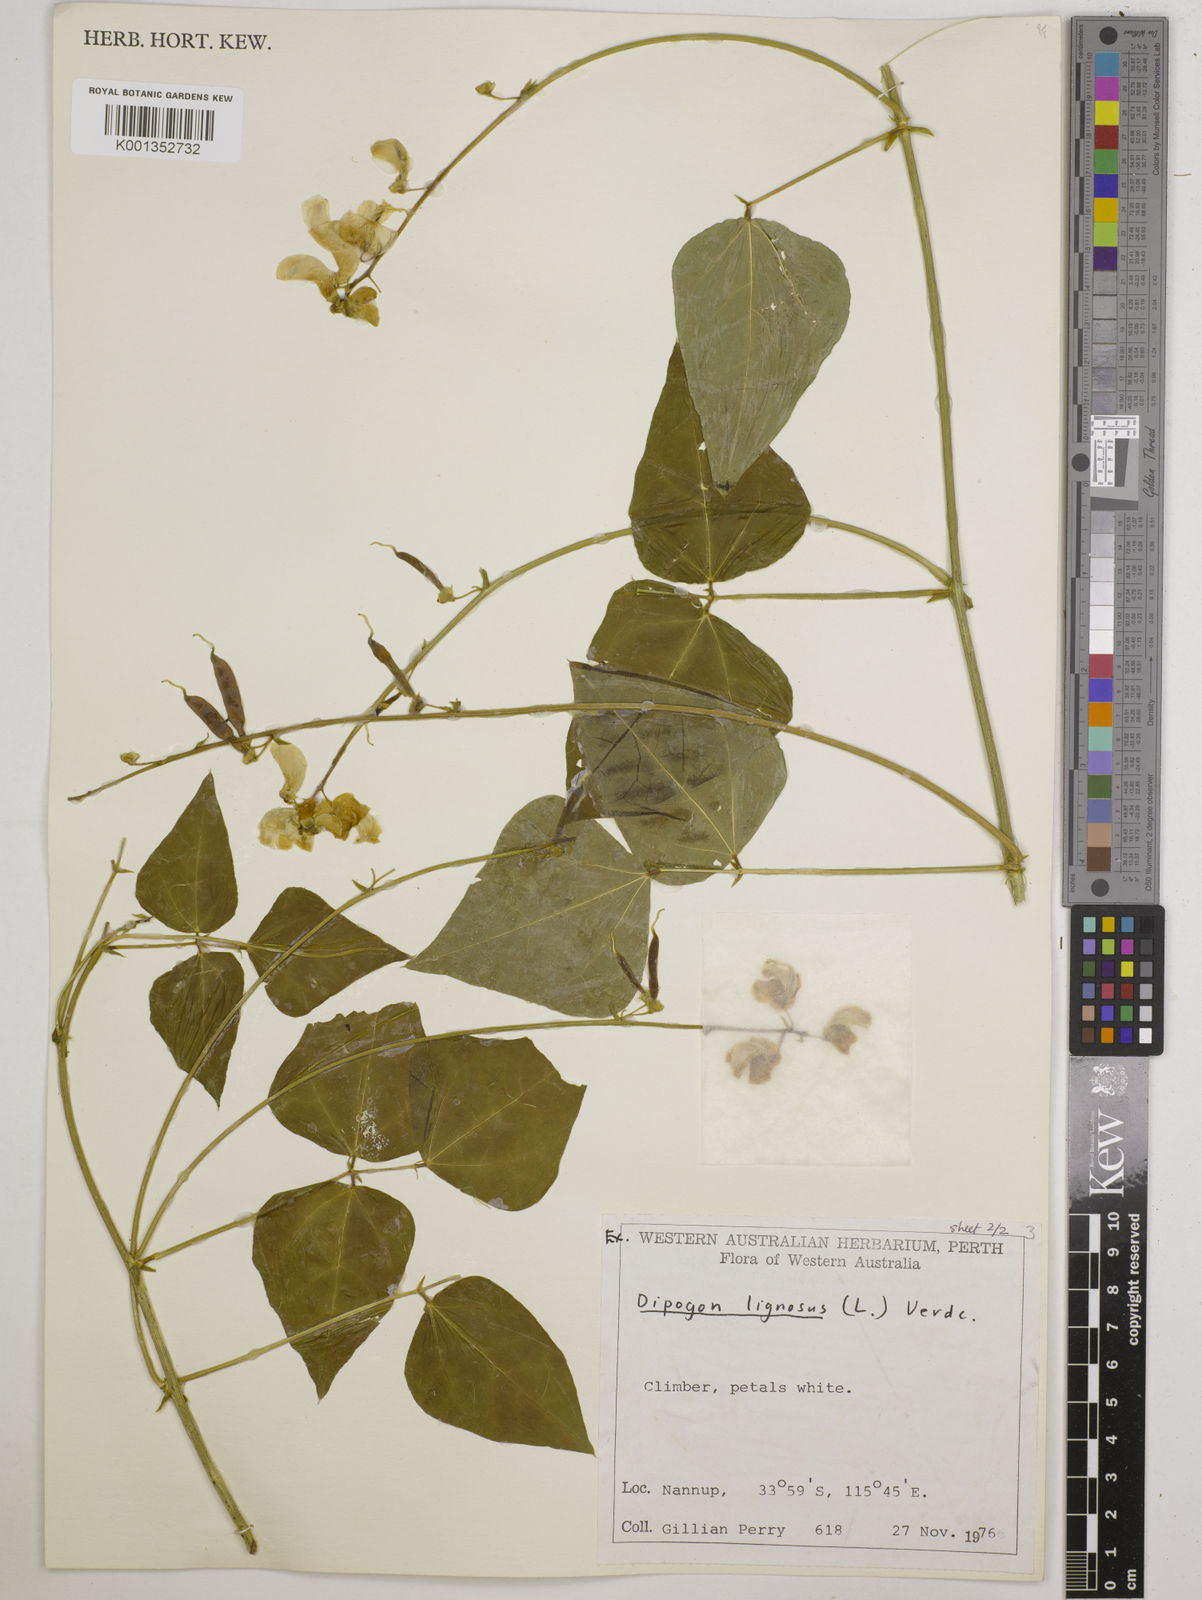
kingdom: Plantae
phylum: Tracheophyta
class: Magnoliopsida
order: Fabales
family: Fabaceae
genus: Dipogon
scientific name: Dipogon lignosus
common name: Okie bean
